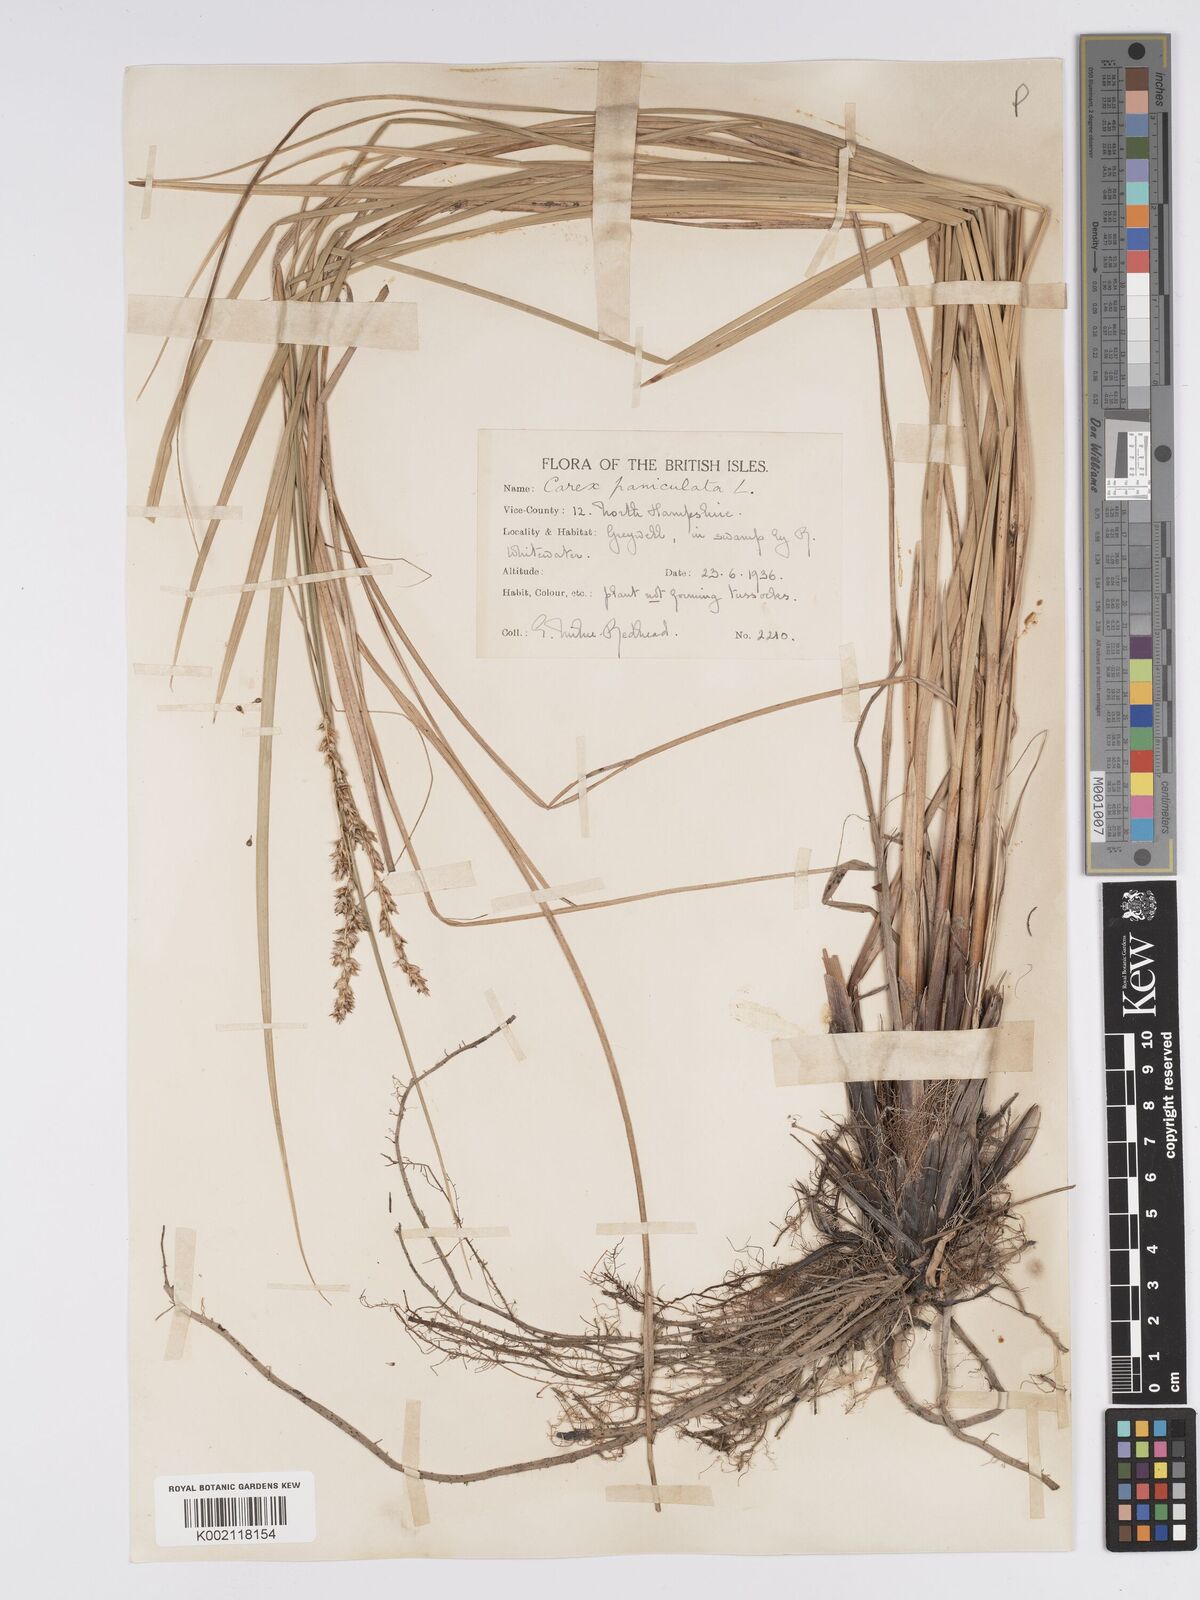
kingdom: Plantae
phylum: Tracheophyta
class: Liliopsida
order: Poales
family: Cyperaceae
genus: Carex
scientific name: Carex paniculata
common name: Greater tussock-sedge
